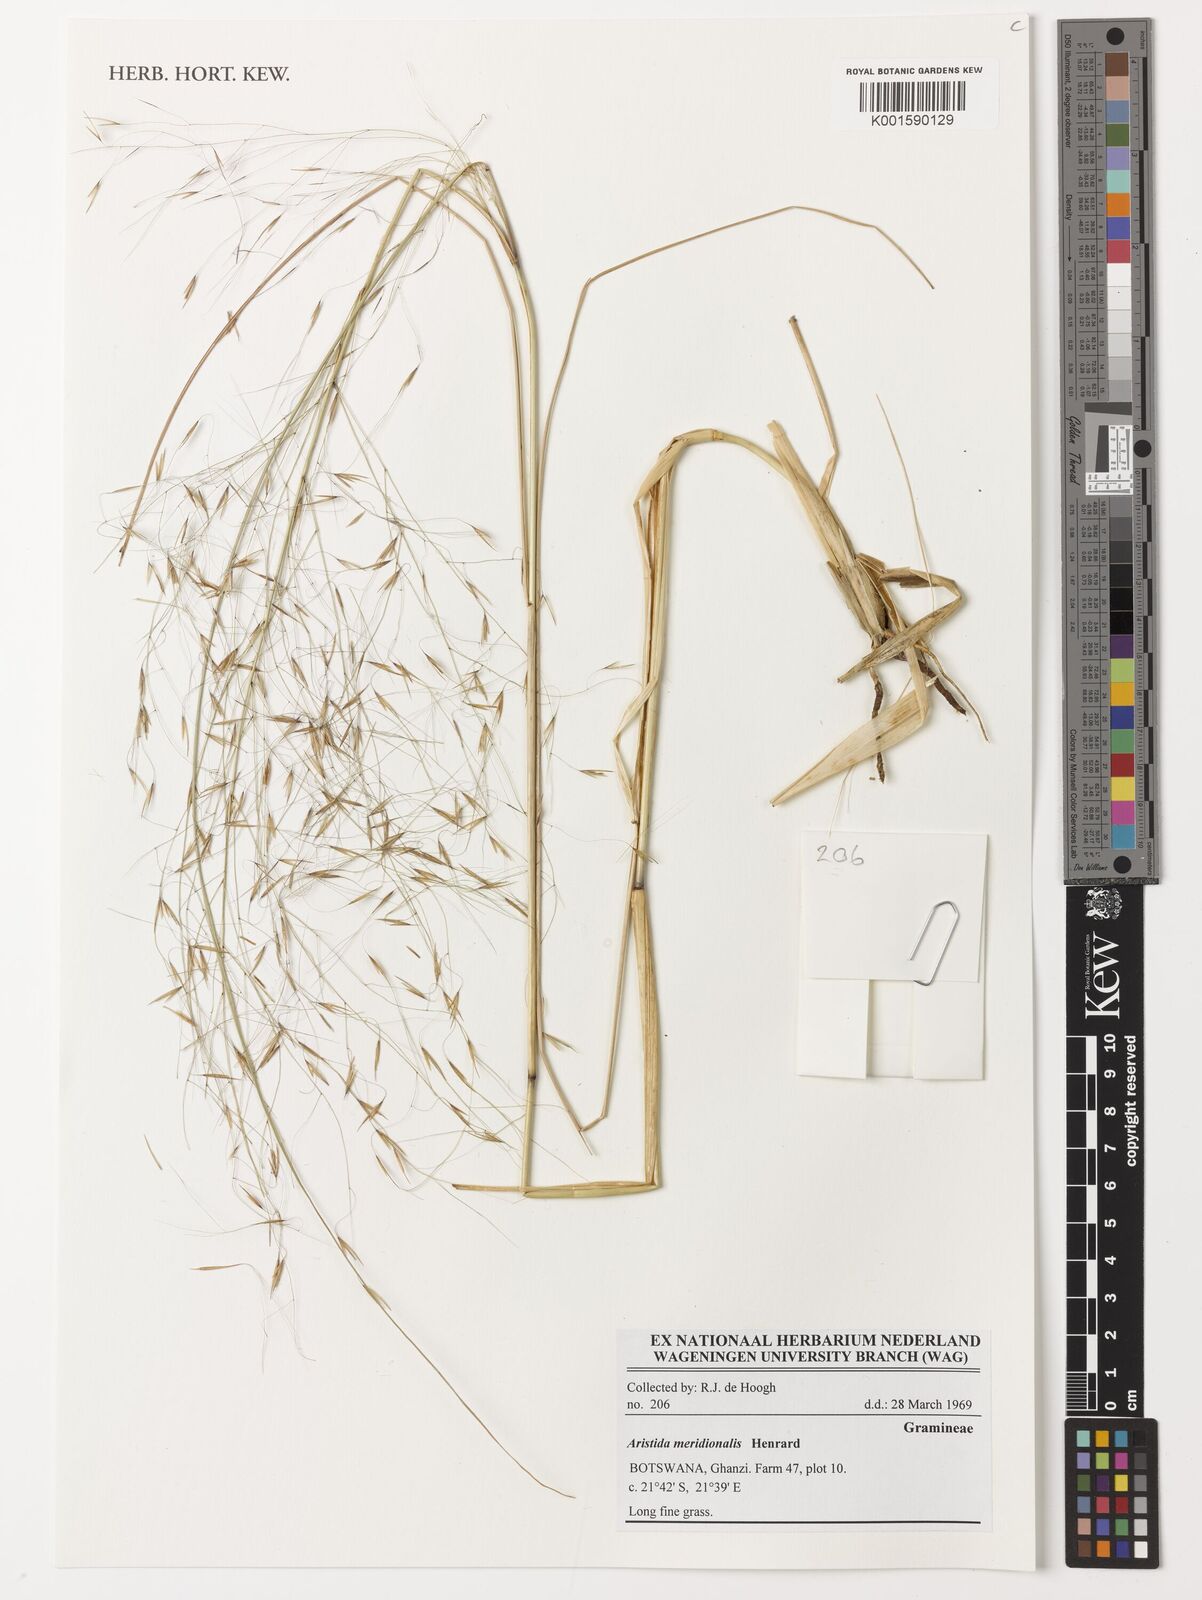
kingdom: Plantae
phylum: Tracheophyta
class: Liliopsida
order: Poales
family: Poaceae
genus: Aristida
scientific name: Aristida meridionalis
